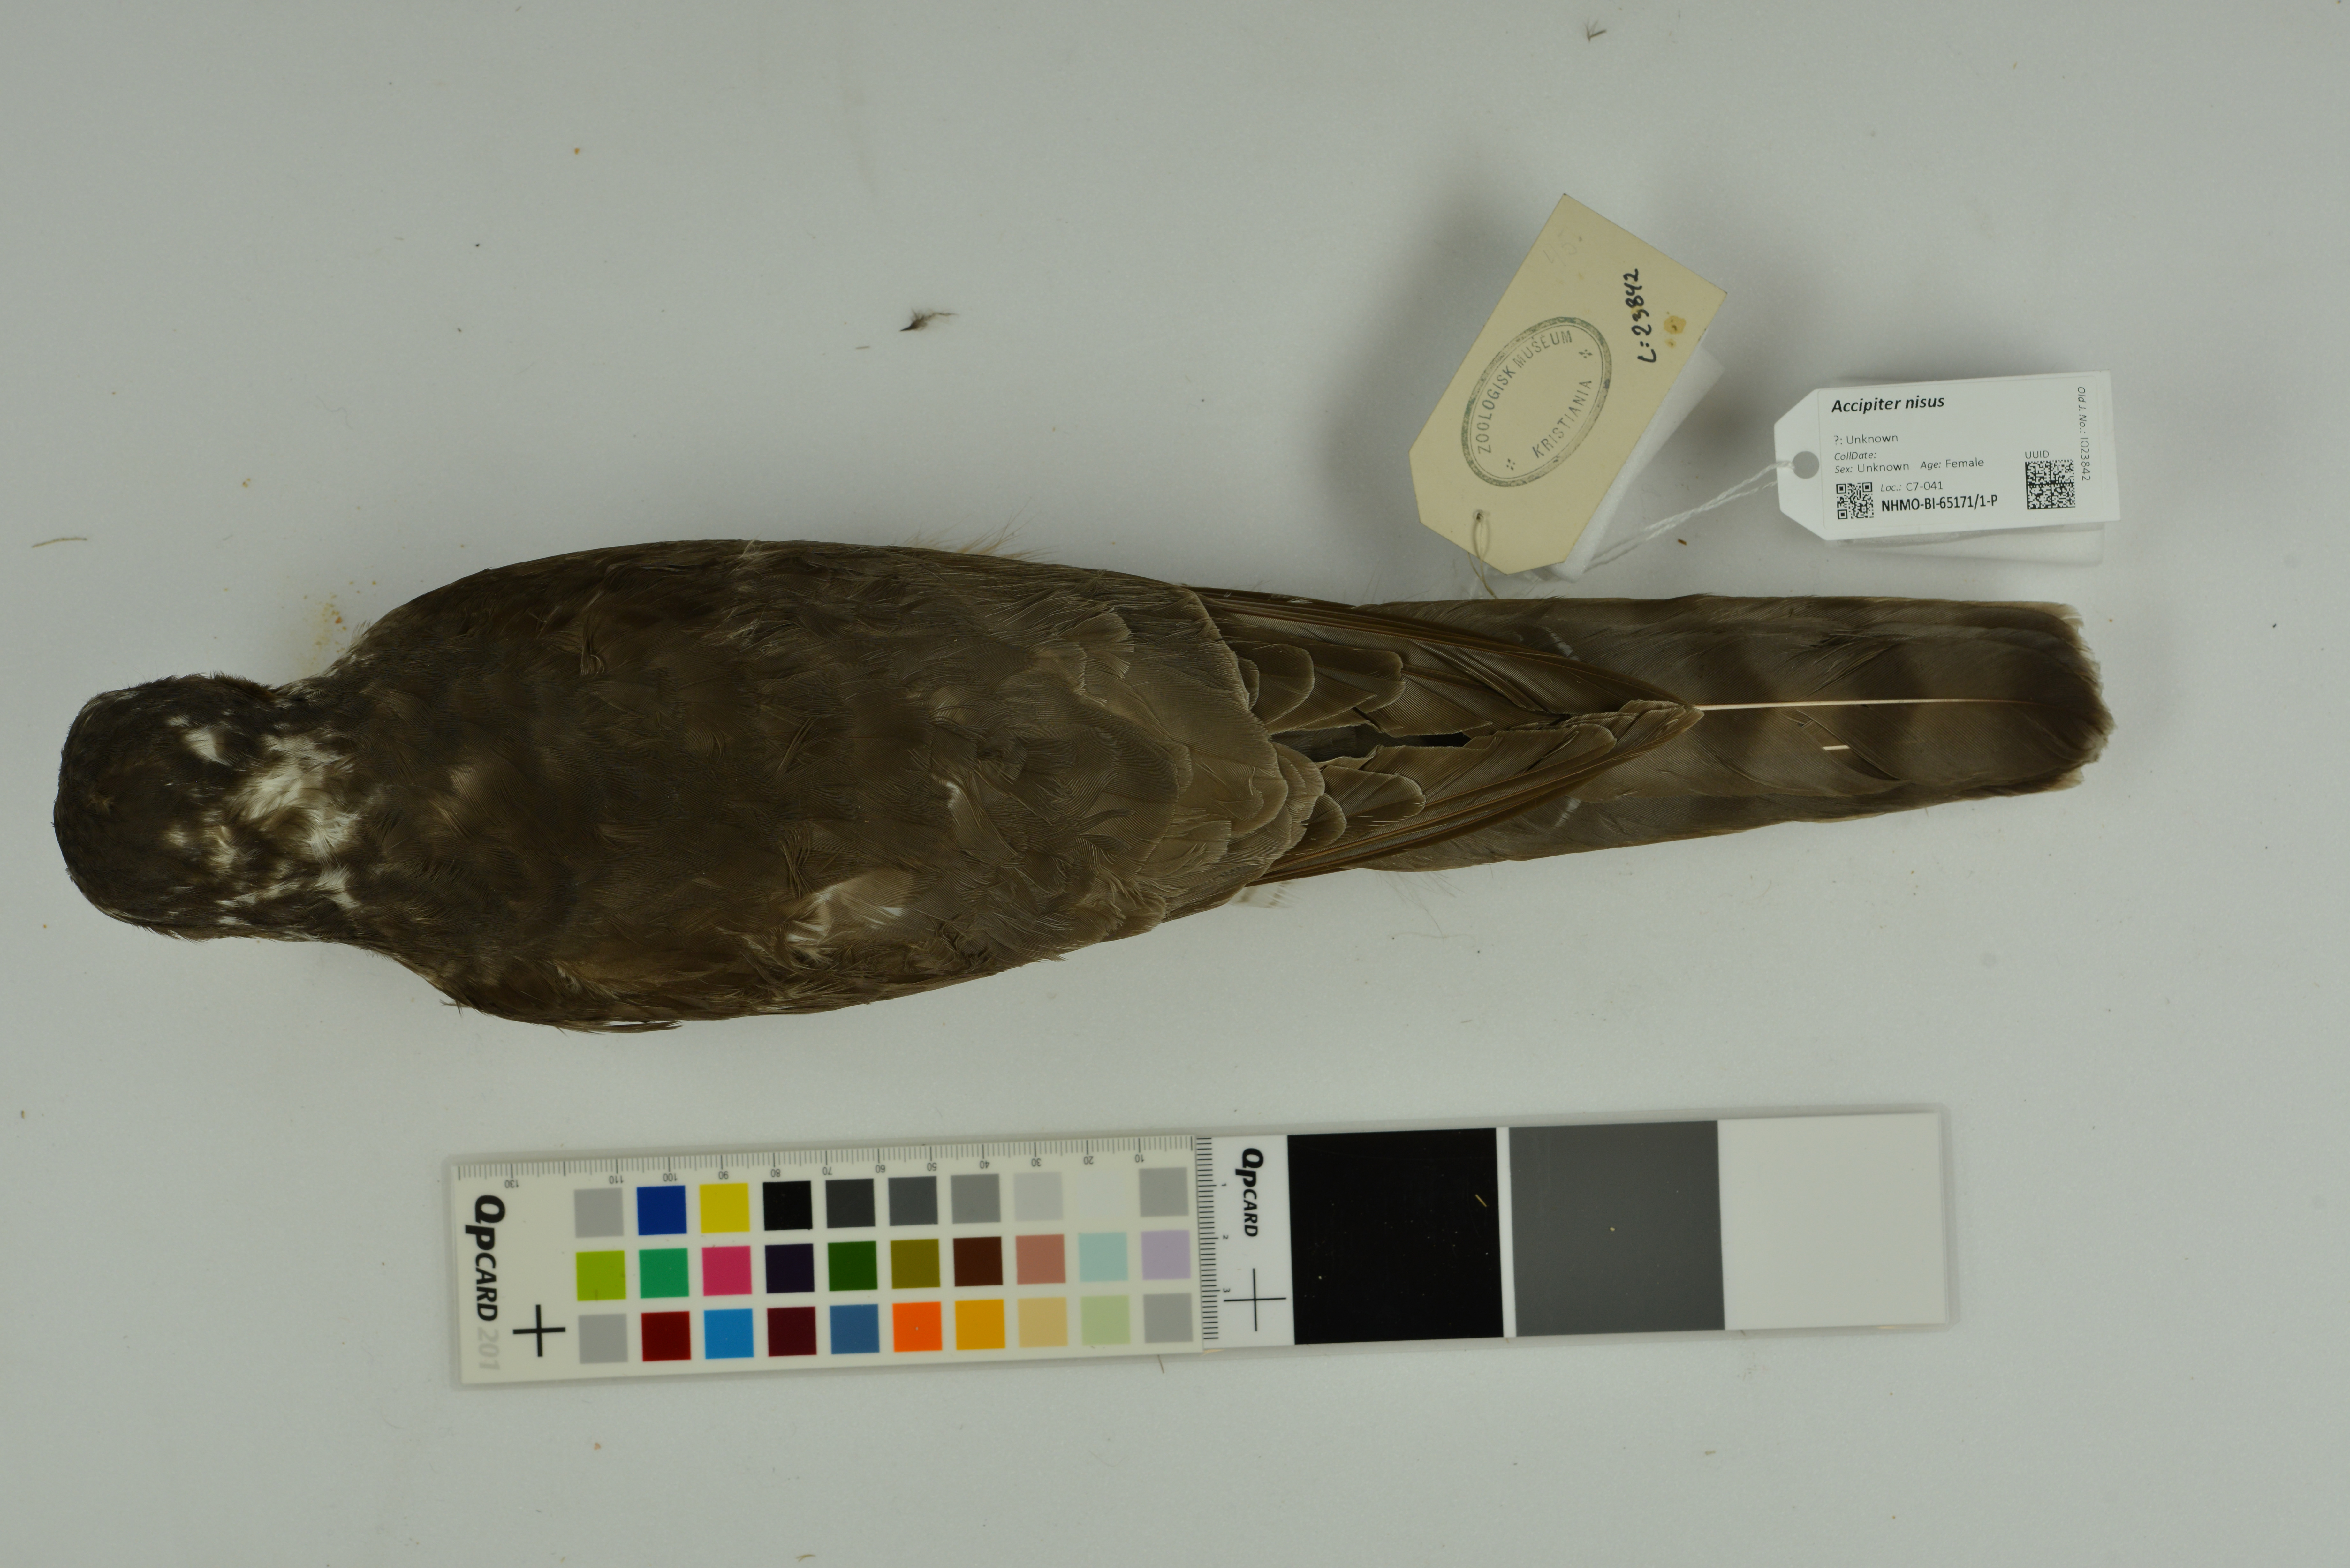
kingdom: Animalia
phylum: Chordata
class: Aves
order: Accipitriformes
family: Accipitridae
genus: Accipiter
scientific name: Accipiter nisus
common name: Eurasian sparrowhawk
